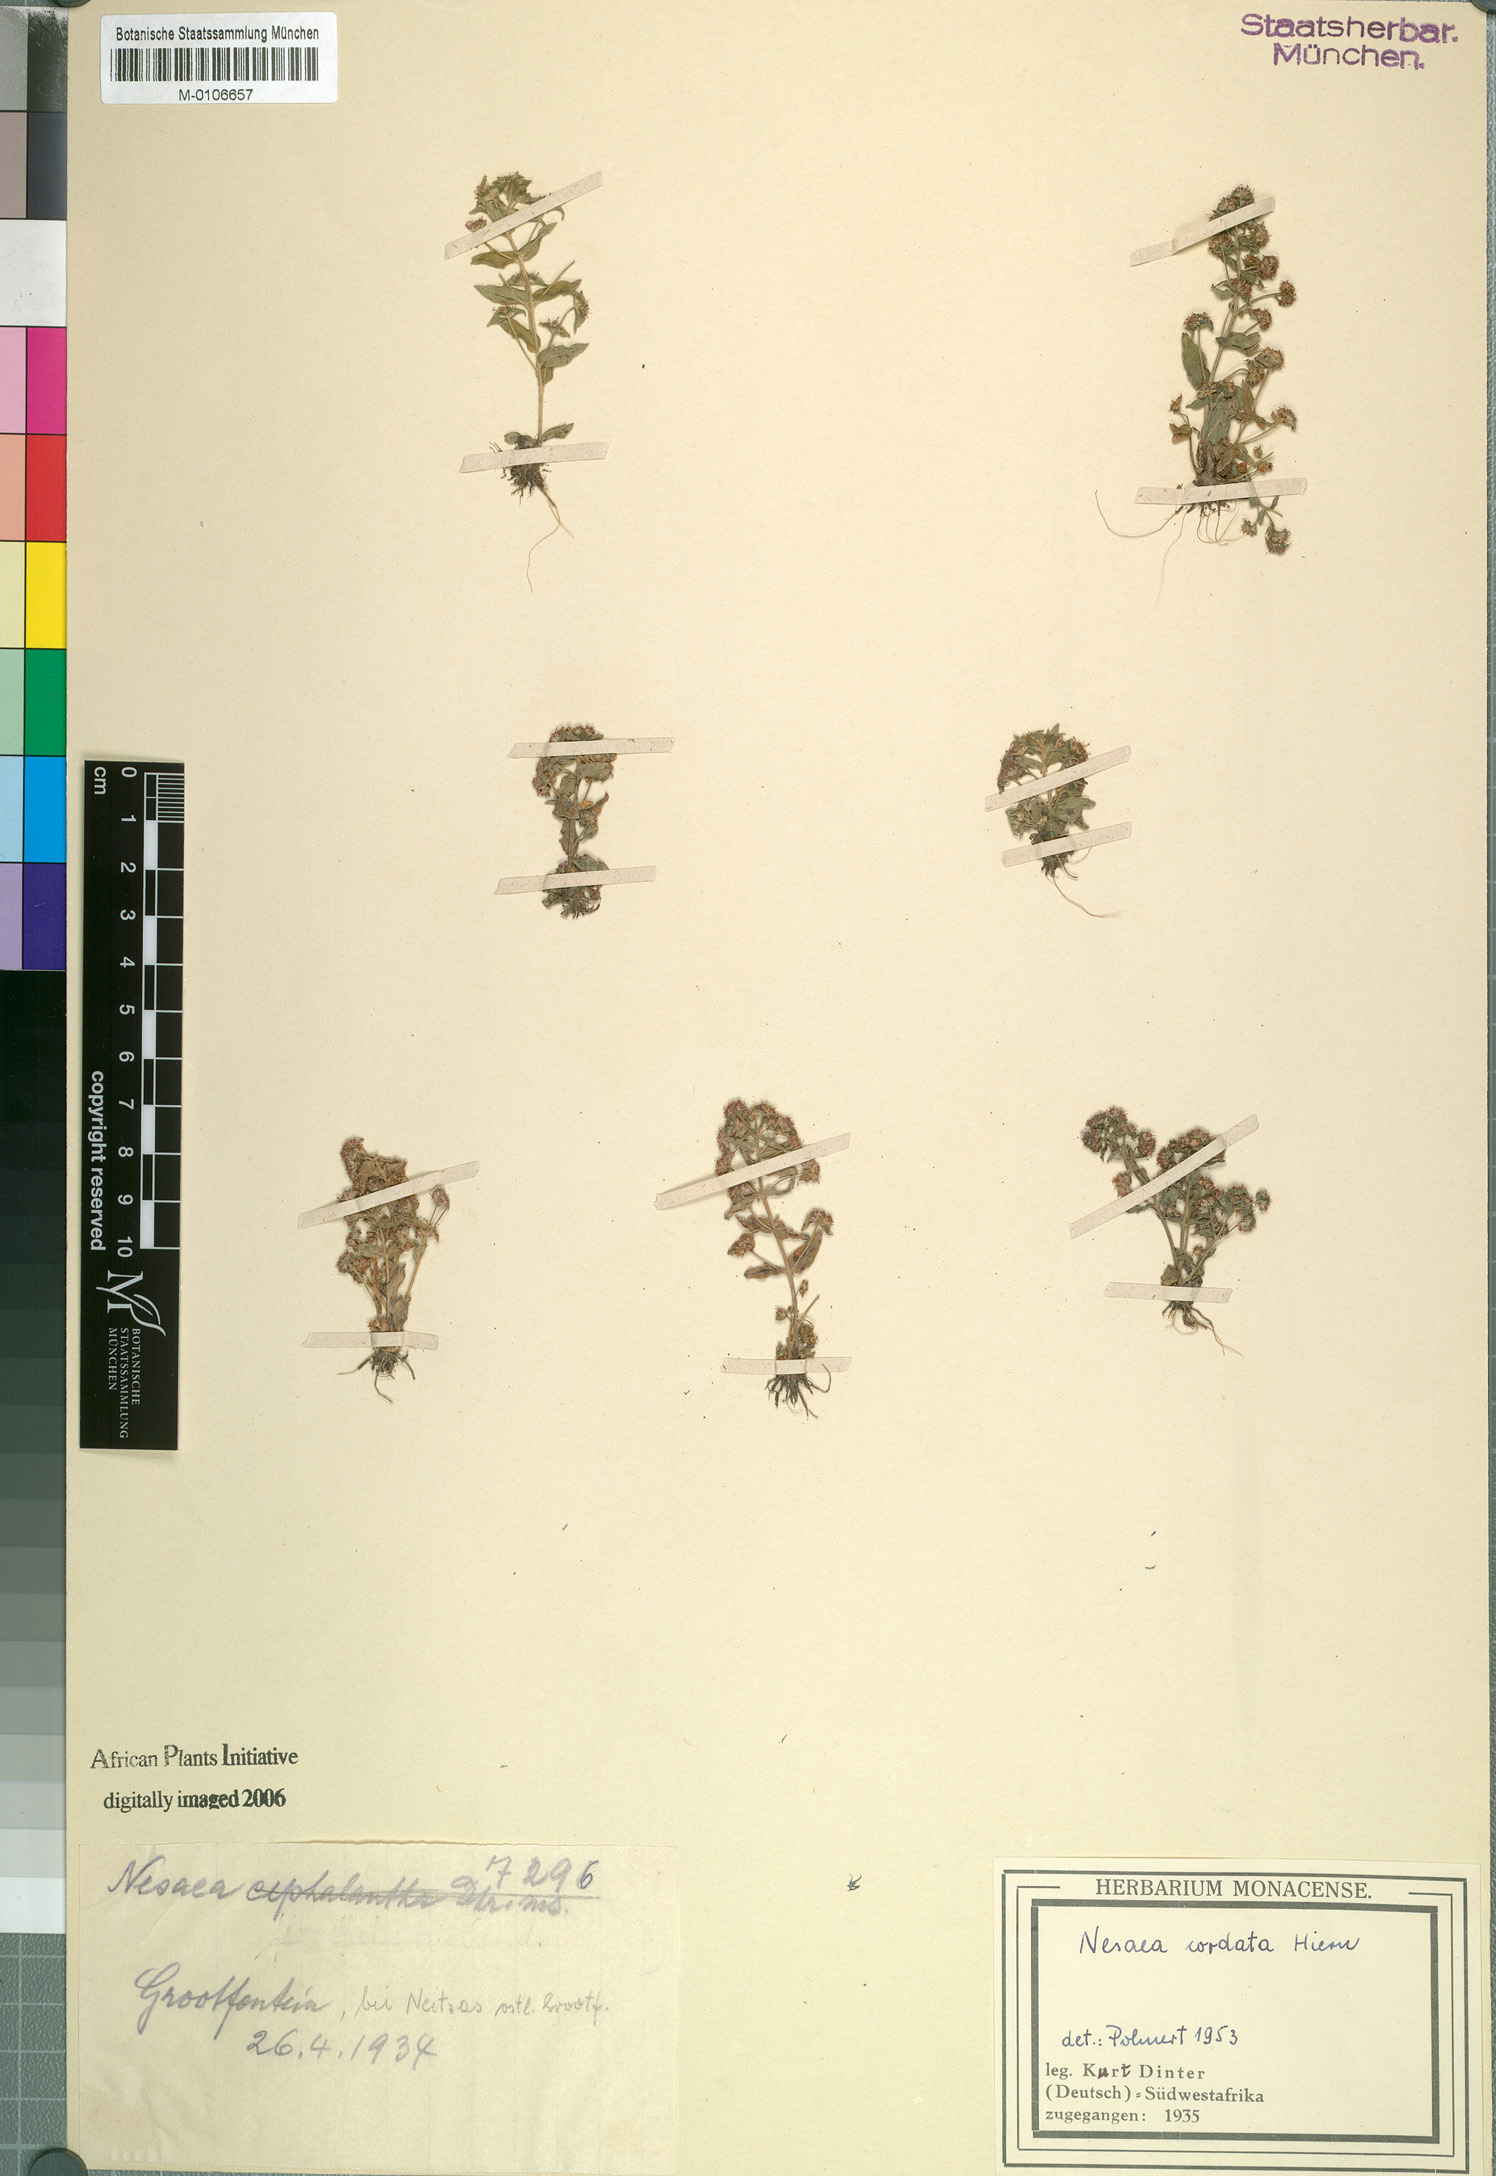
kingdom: Plantae
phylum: Tracheophyta
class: Magnoliopsida
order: Myrtales
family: Lythraceae
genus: Ammannia
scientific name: Ammannia involucrata
